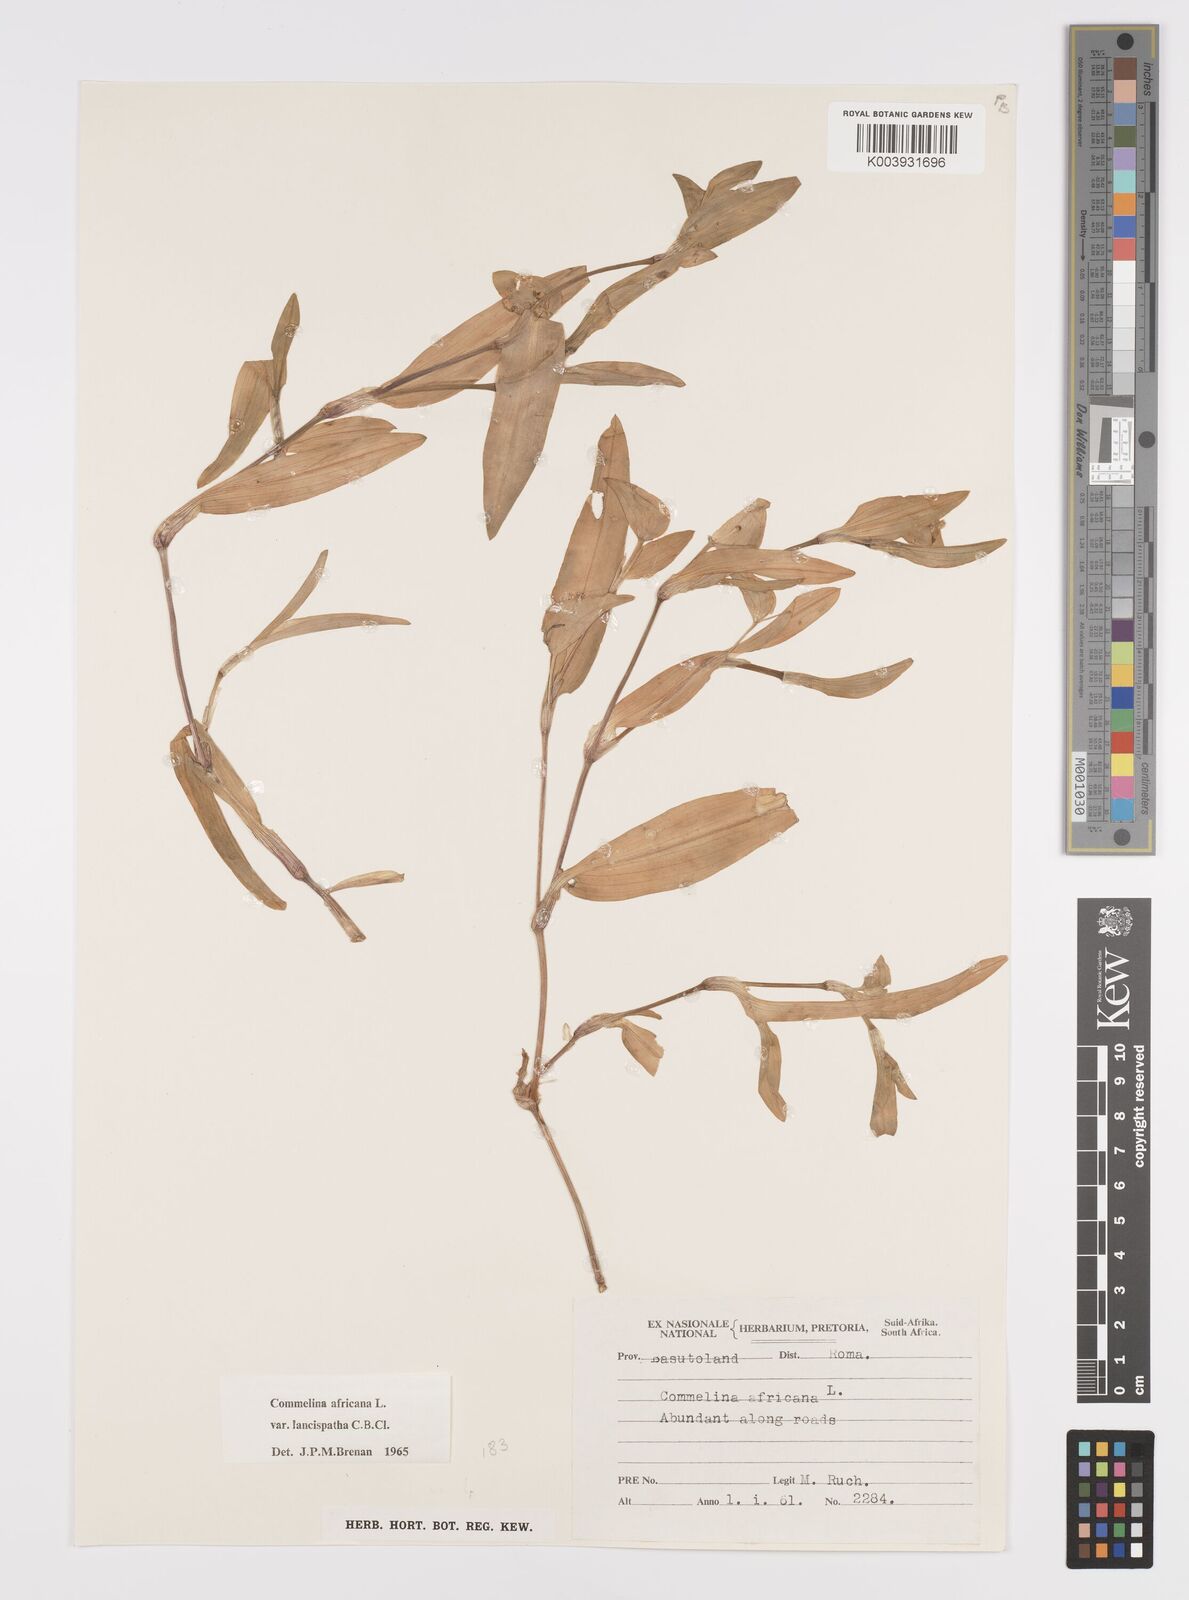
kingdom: Plantae
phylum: Tracheophyta
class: Liliopsida
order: Commelinales
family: Commelinaceae
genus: Commelina
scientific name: Commelina africana
